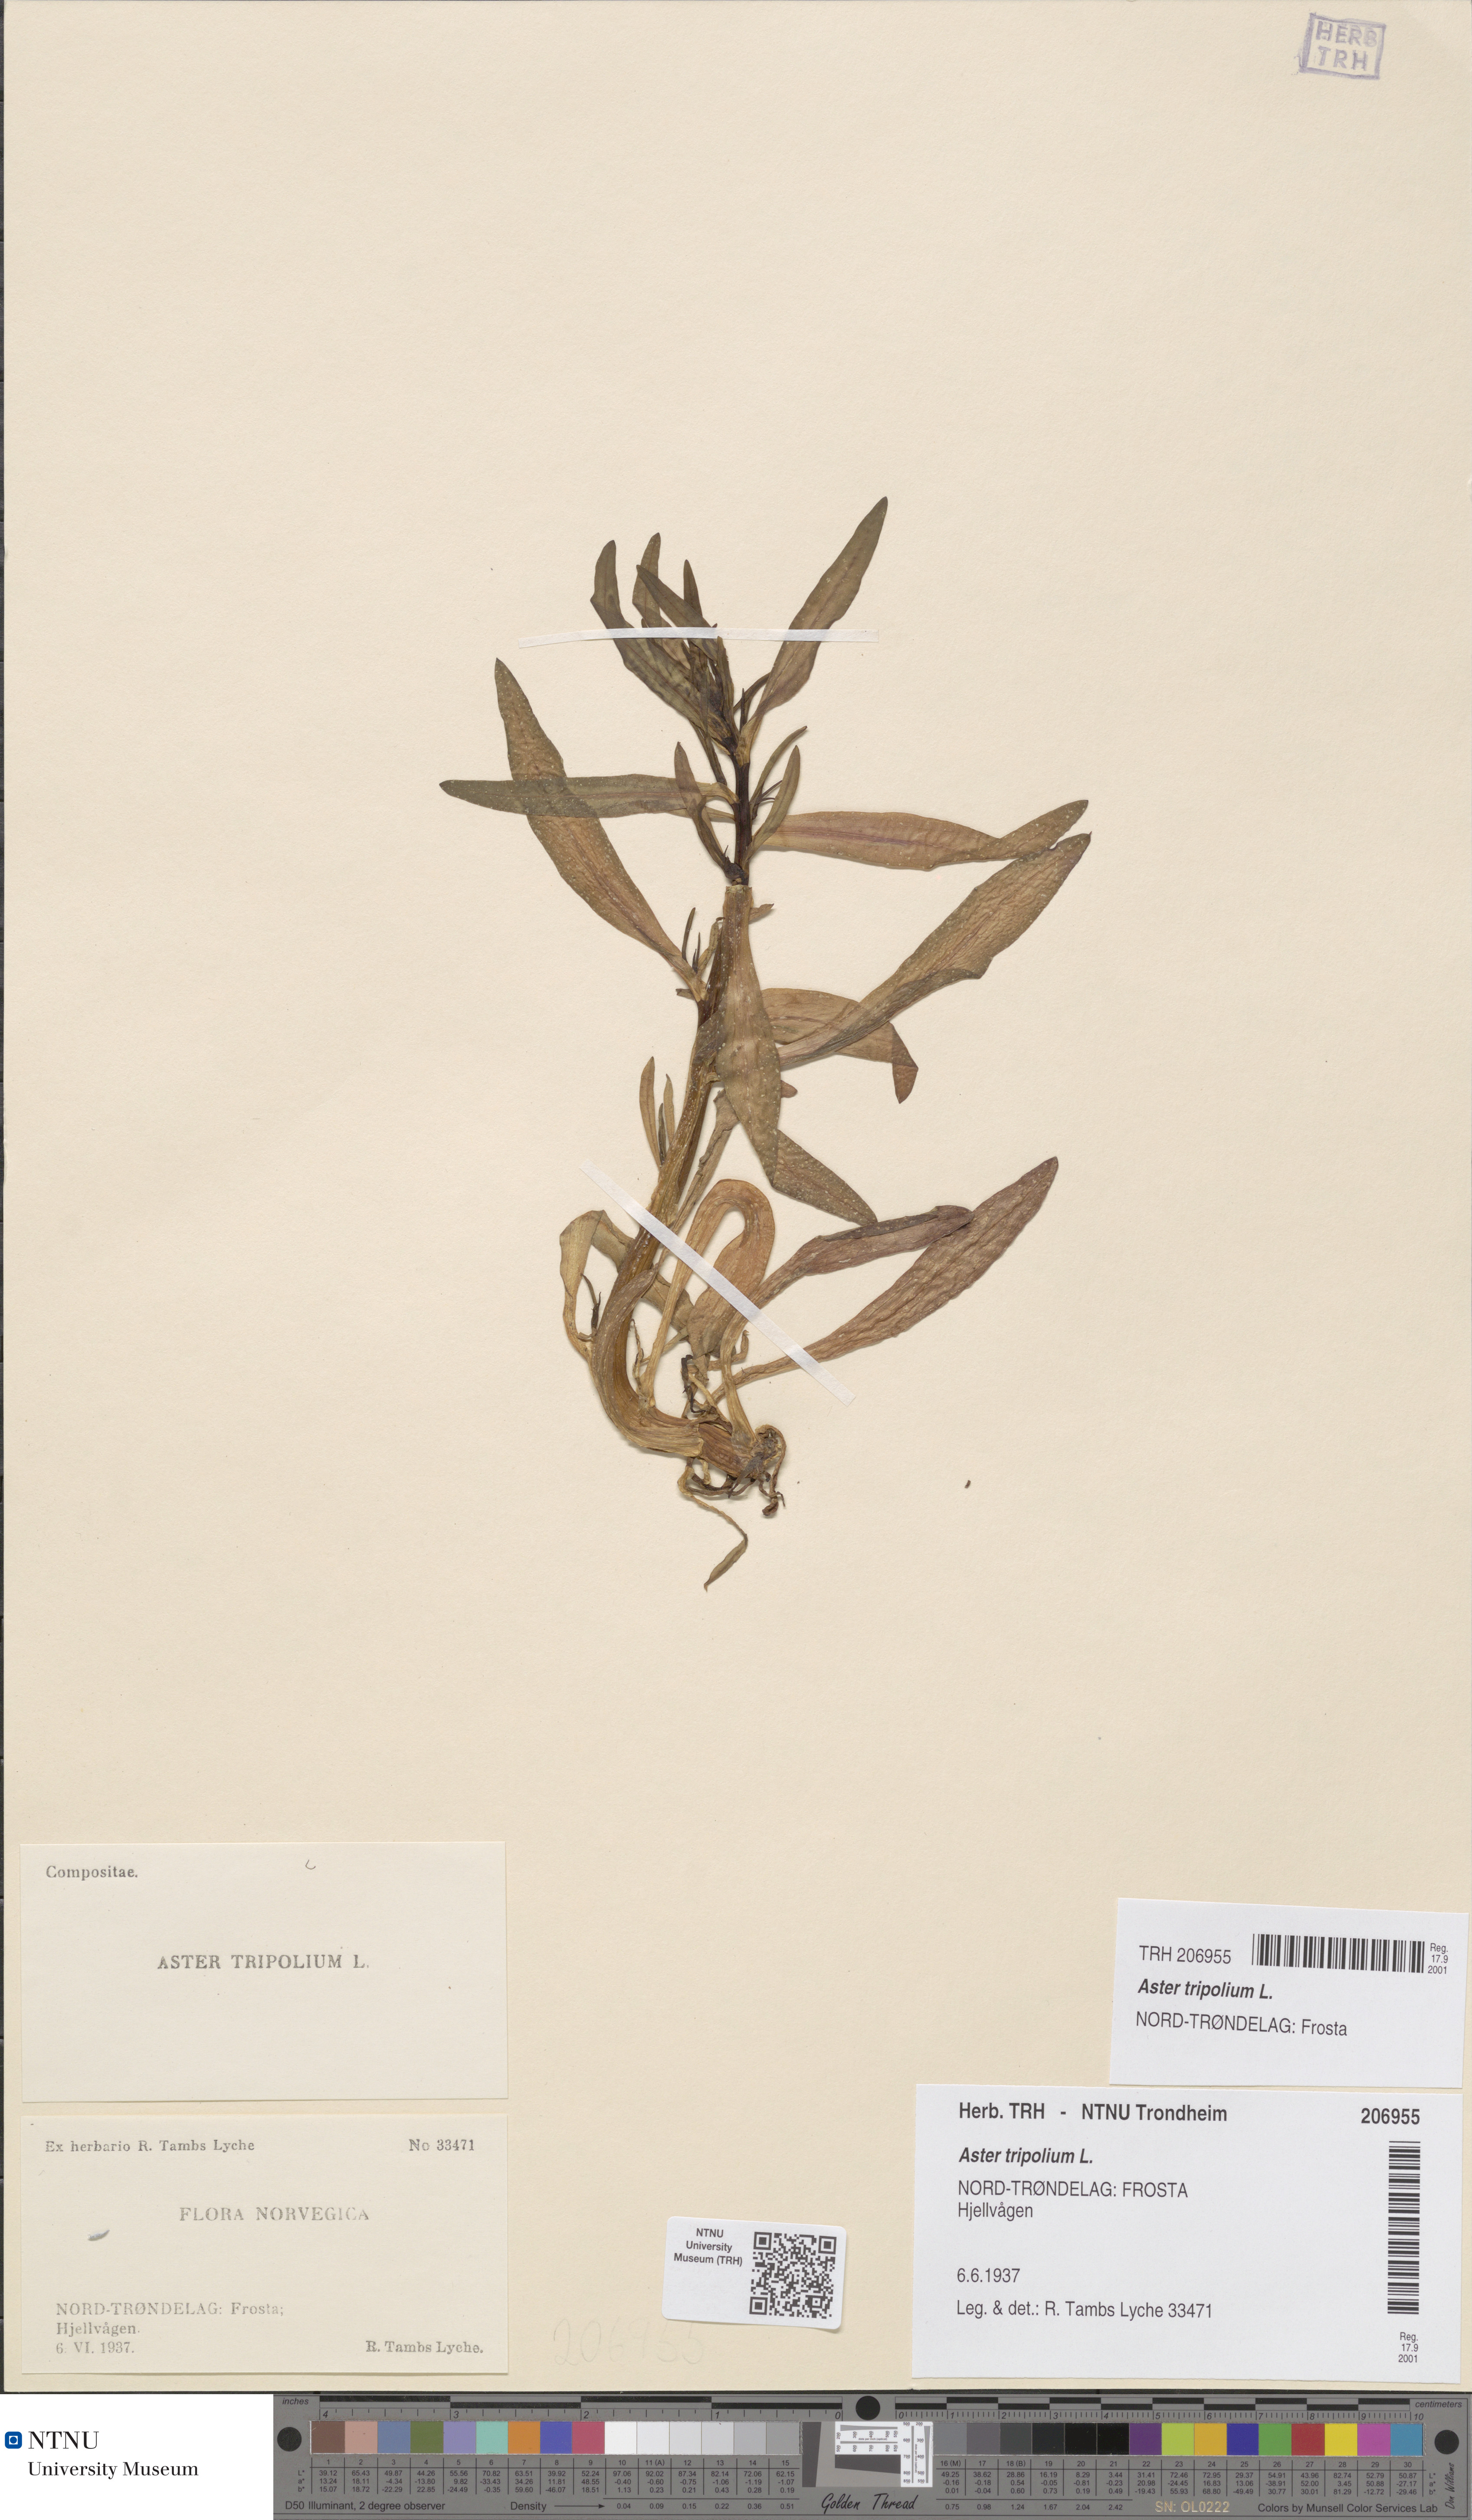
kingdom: Plantae
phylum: Tracheophyta
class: Magnoliopsida
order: Asterales
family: Asteraceae
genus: Tripolium
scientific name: Tripolium pannonicum
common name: Sea aster
